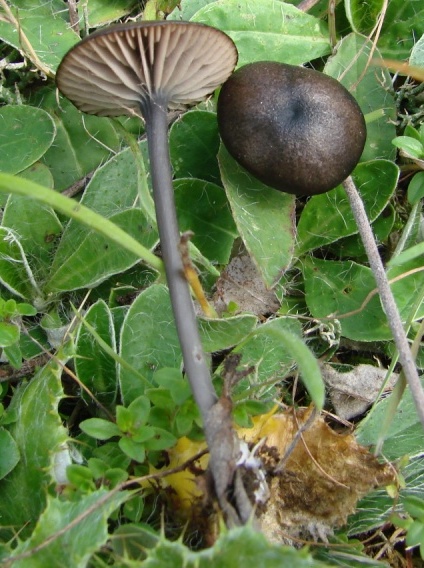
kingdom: Fungi
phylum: Basidiomycota
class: Agaricomycetes
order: Agaricales
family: Entolomataceae
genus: Entoloma
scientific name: Entoloma chalybeum
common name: blåbladet rødblad
